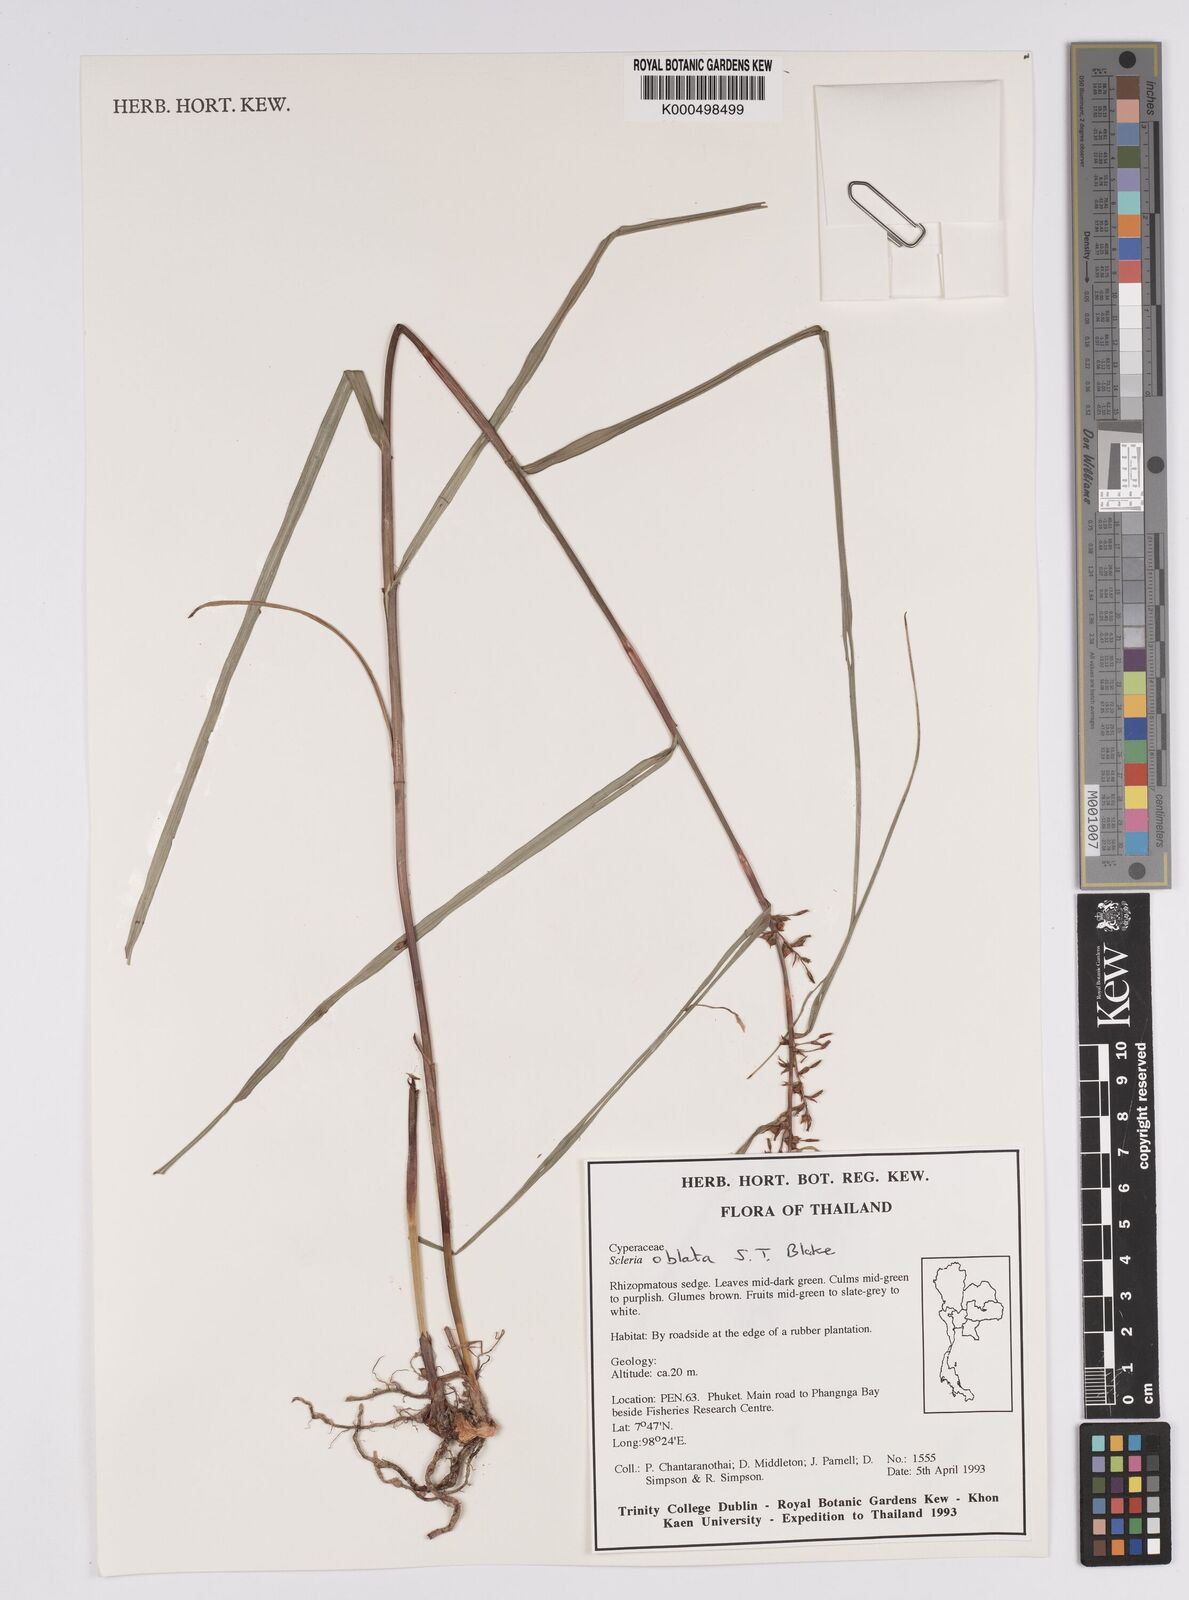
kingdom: Plantae
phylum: Tracheophyta
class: Liliopsida
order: Poales
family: Cyperaceae
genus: Scleria
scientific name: Scleria oblata
